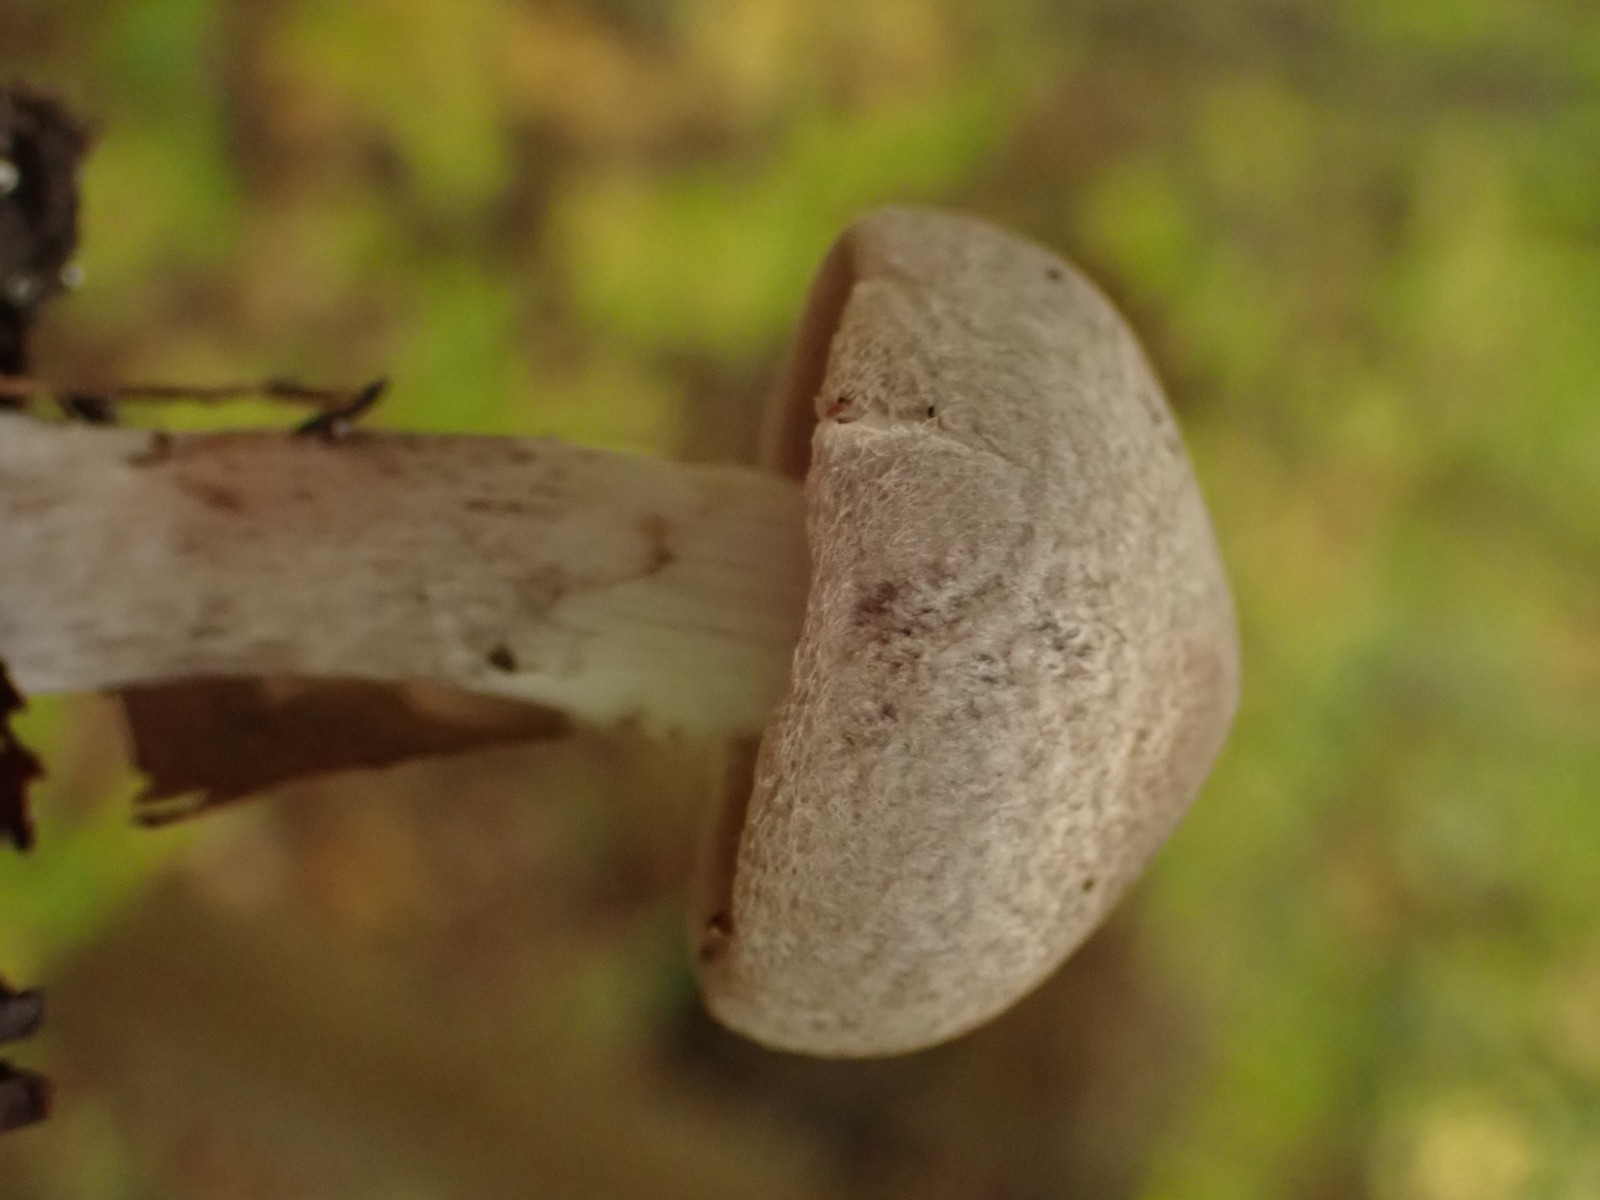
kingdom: Fungi
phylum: Basidiomycota
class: Agaricomycetes
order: Agaricales
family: Tricholomataceae
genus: Tricholoma
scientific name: Tricholoma
